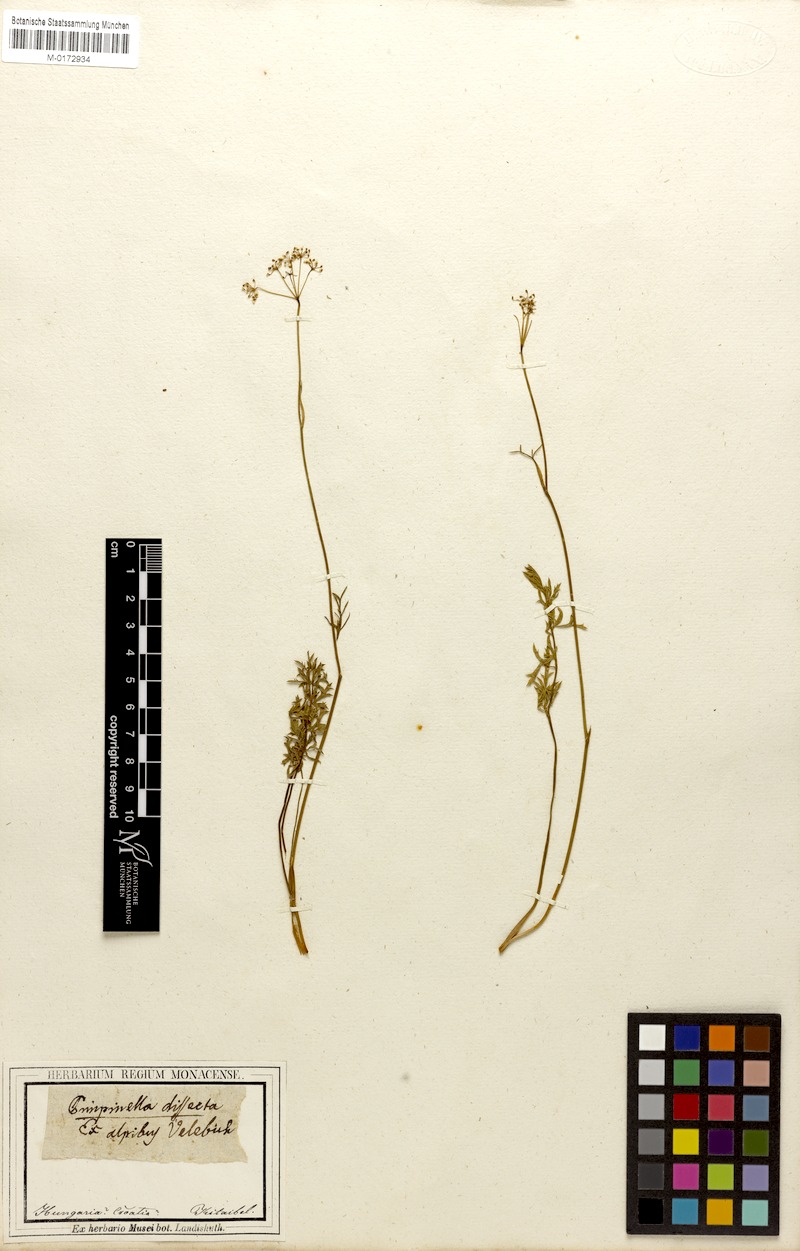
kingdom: Plantae
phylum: Tracheophyta
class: Magnoliopsida
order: Apiales
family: Apiaceae
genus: Pimpinella
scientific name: Pimpinella saxifraga
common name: Burnet-saxifrage
